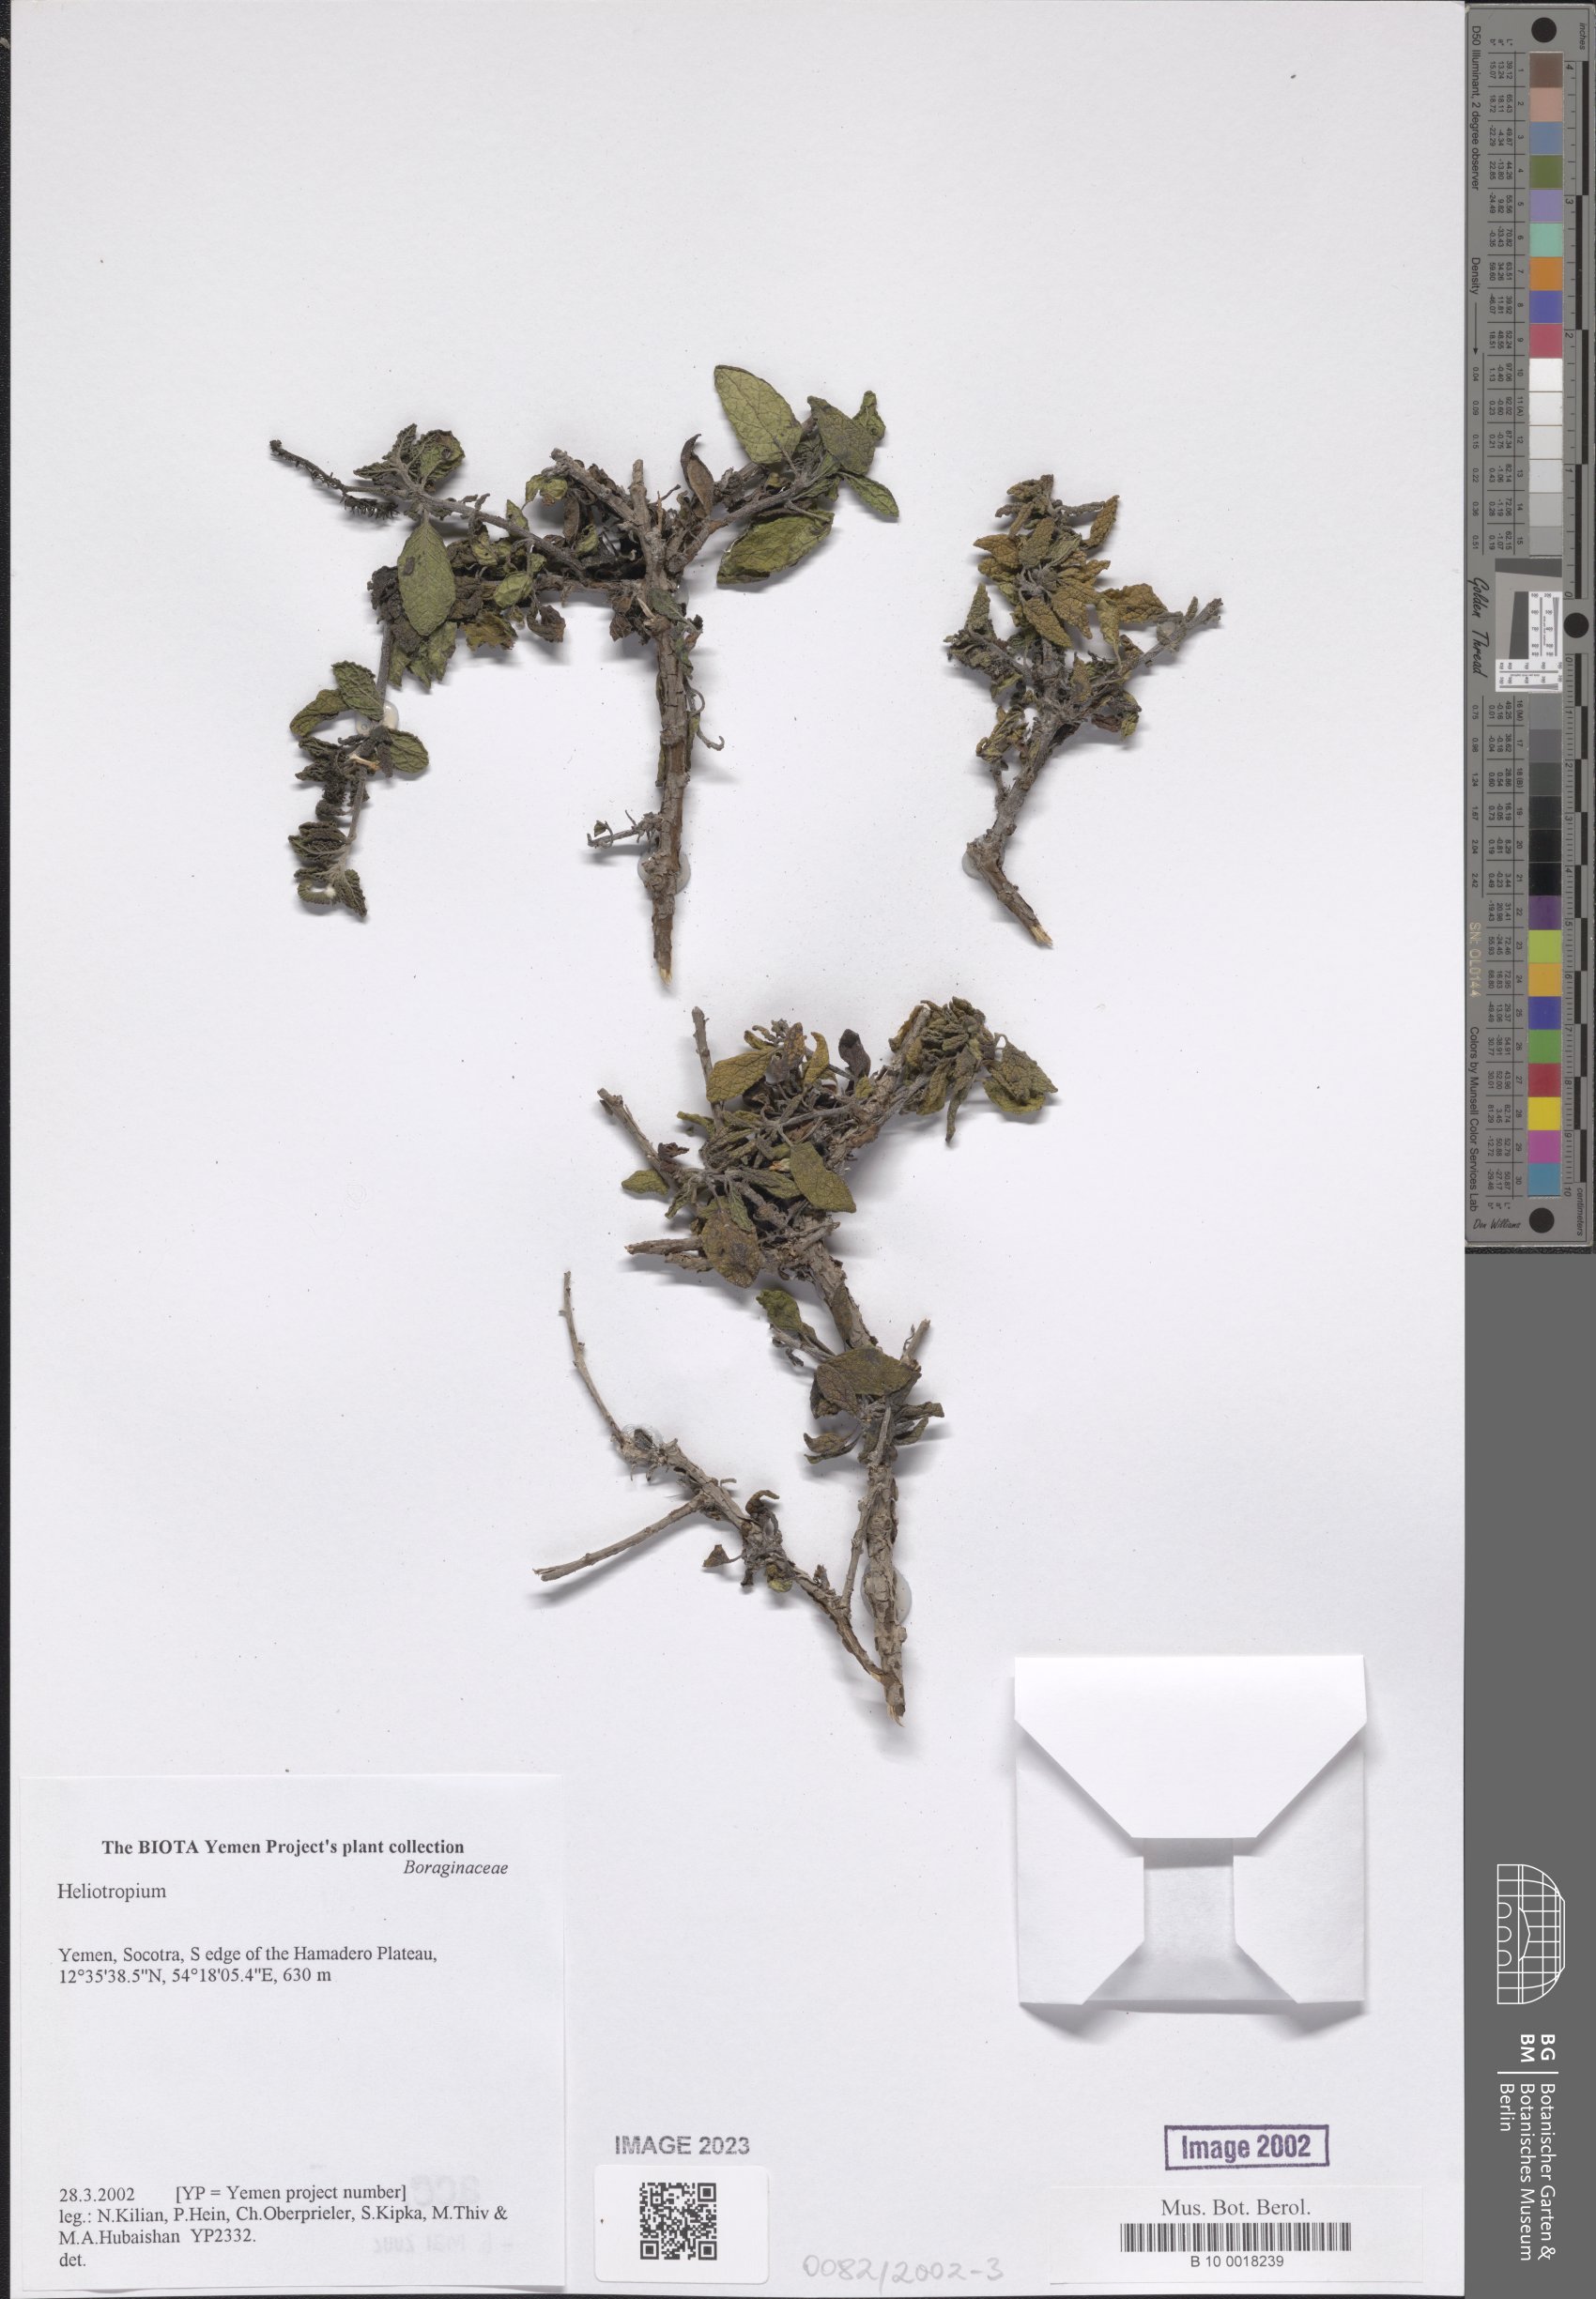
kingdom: Plantae
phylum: Tracheophyta
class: Magnoliopsida
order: Boraginales
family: Heliotropiaceae
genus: Heliotropium
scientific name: Heliotropium
